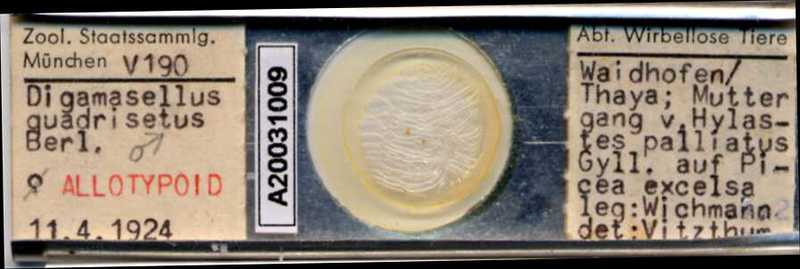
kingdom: Animalia
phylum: Arthropoda
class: Arachnida
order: Mesostigmata
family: Digamasellidae
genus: Dendrolaelaps
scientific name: Dendrolaelaps quadrisetus
